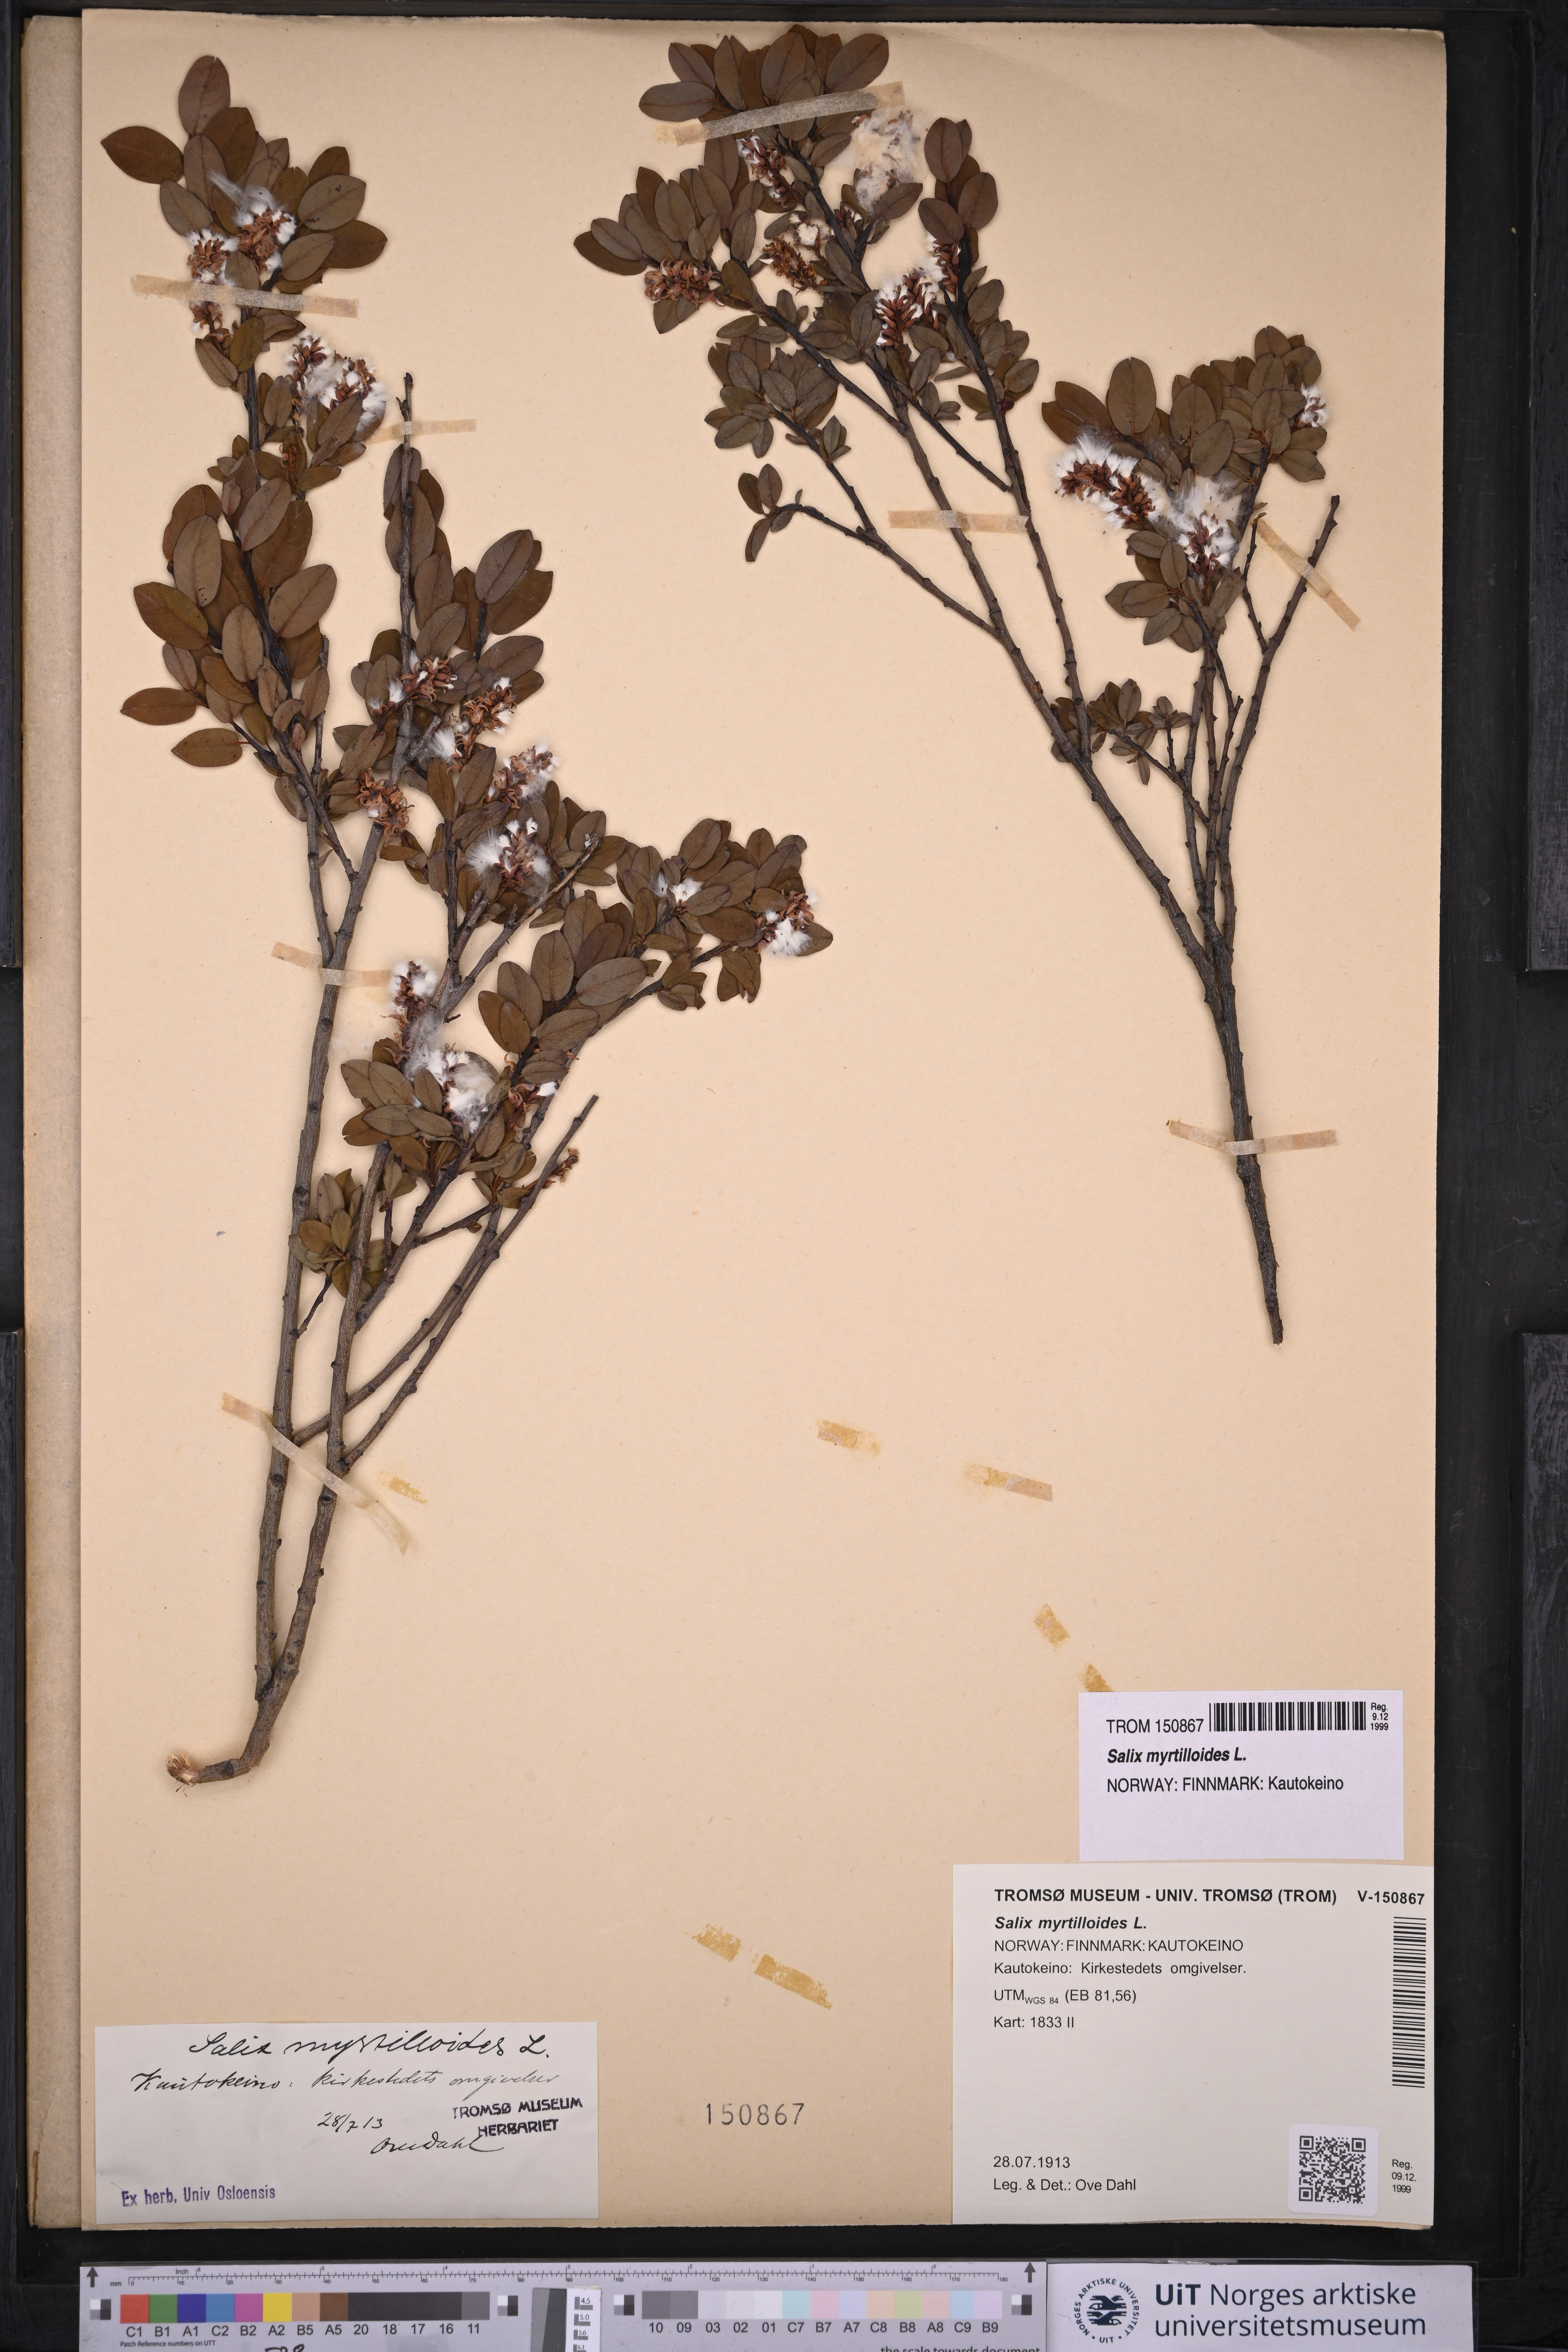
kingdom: Plantae
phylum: Tracheophyta
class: Magnoliopsida
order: Malpighiales
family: Salicaceae
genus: Salix
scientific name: Salix myrtilloides
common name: Myrtle-leaved willow
